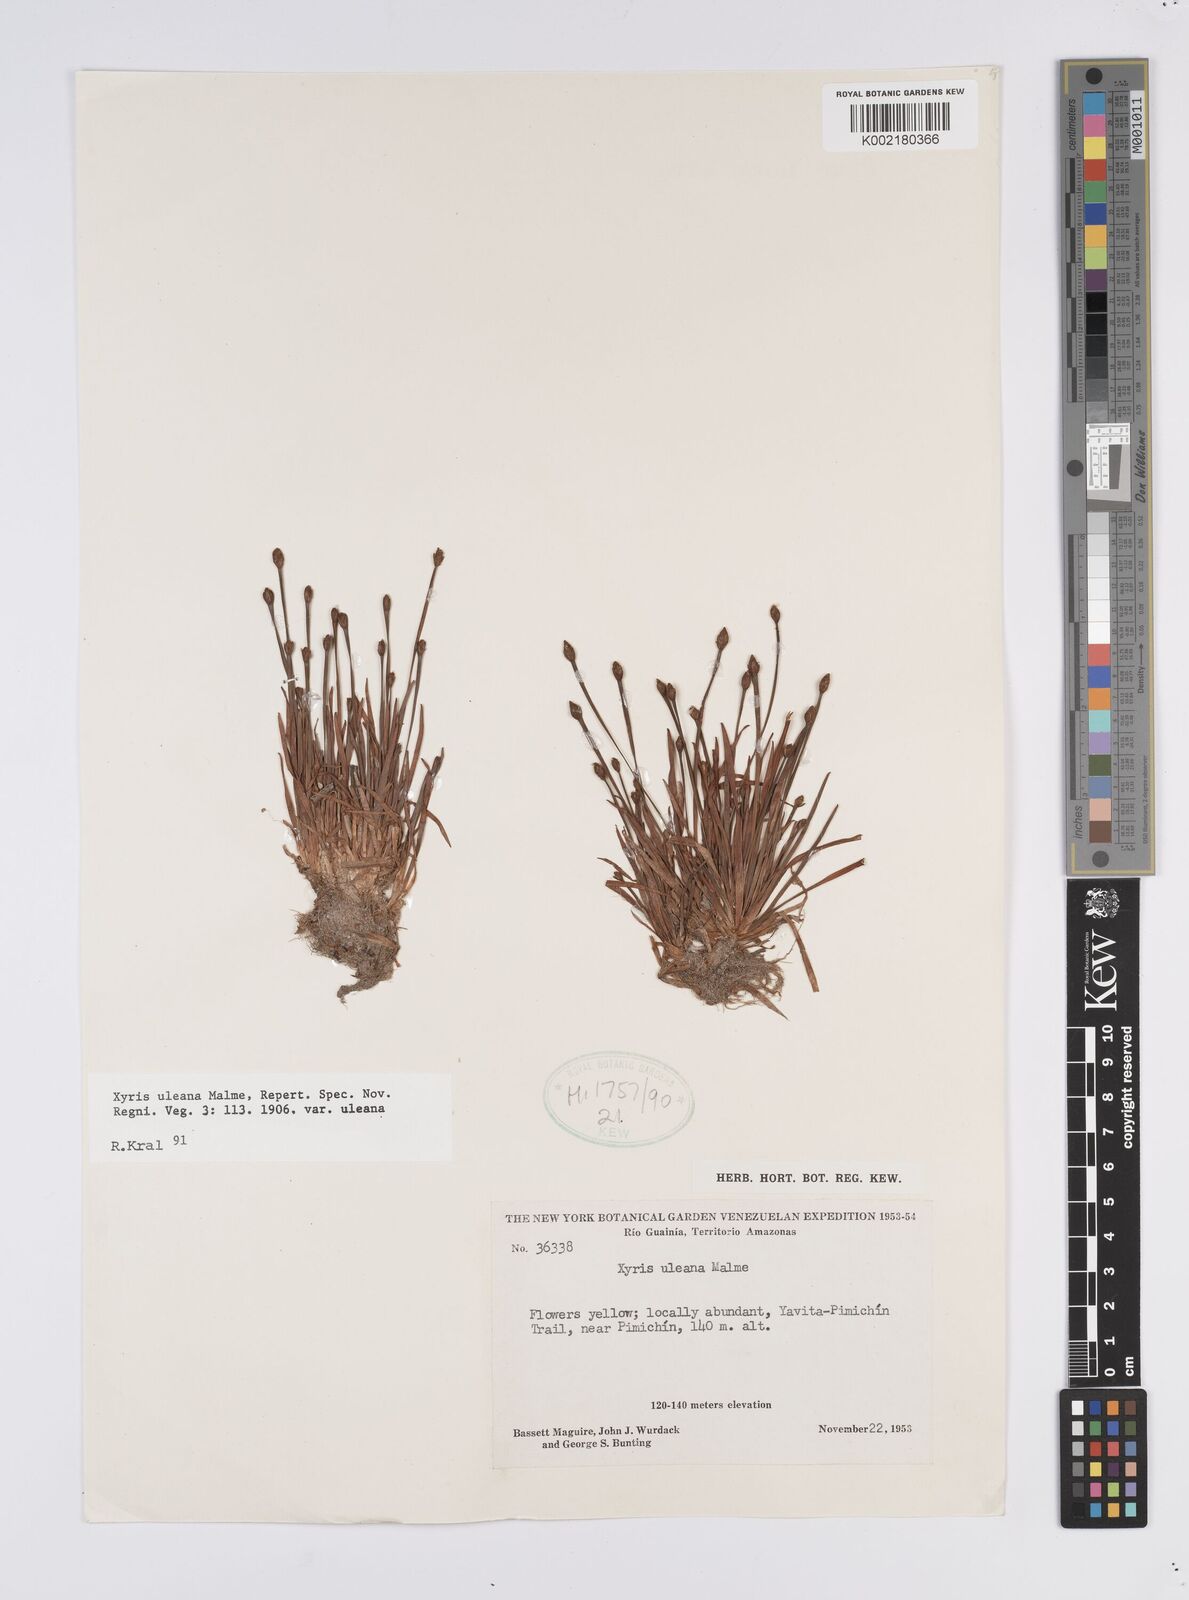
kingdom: Plantae
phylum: Tracheophyta
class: Liliopsida
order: Poales
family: Xyridaceae
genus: Xyris
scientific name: Xyris uleana
